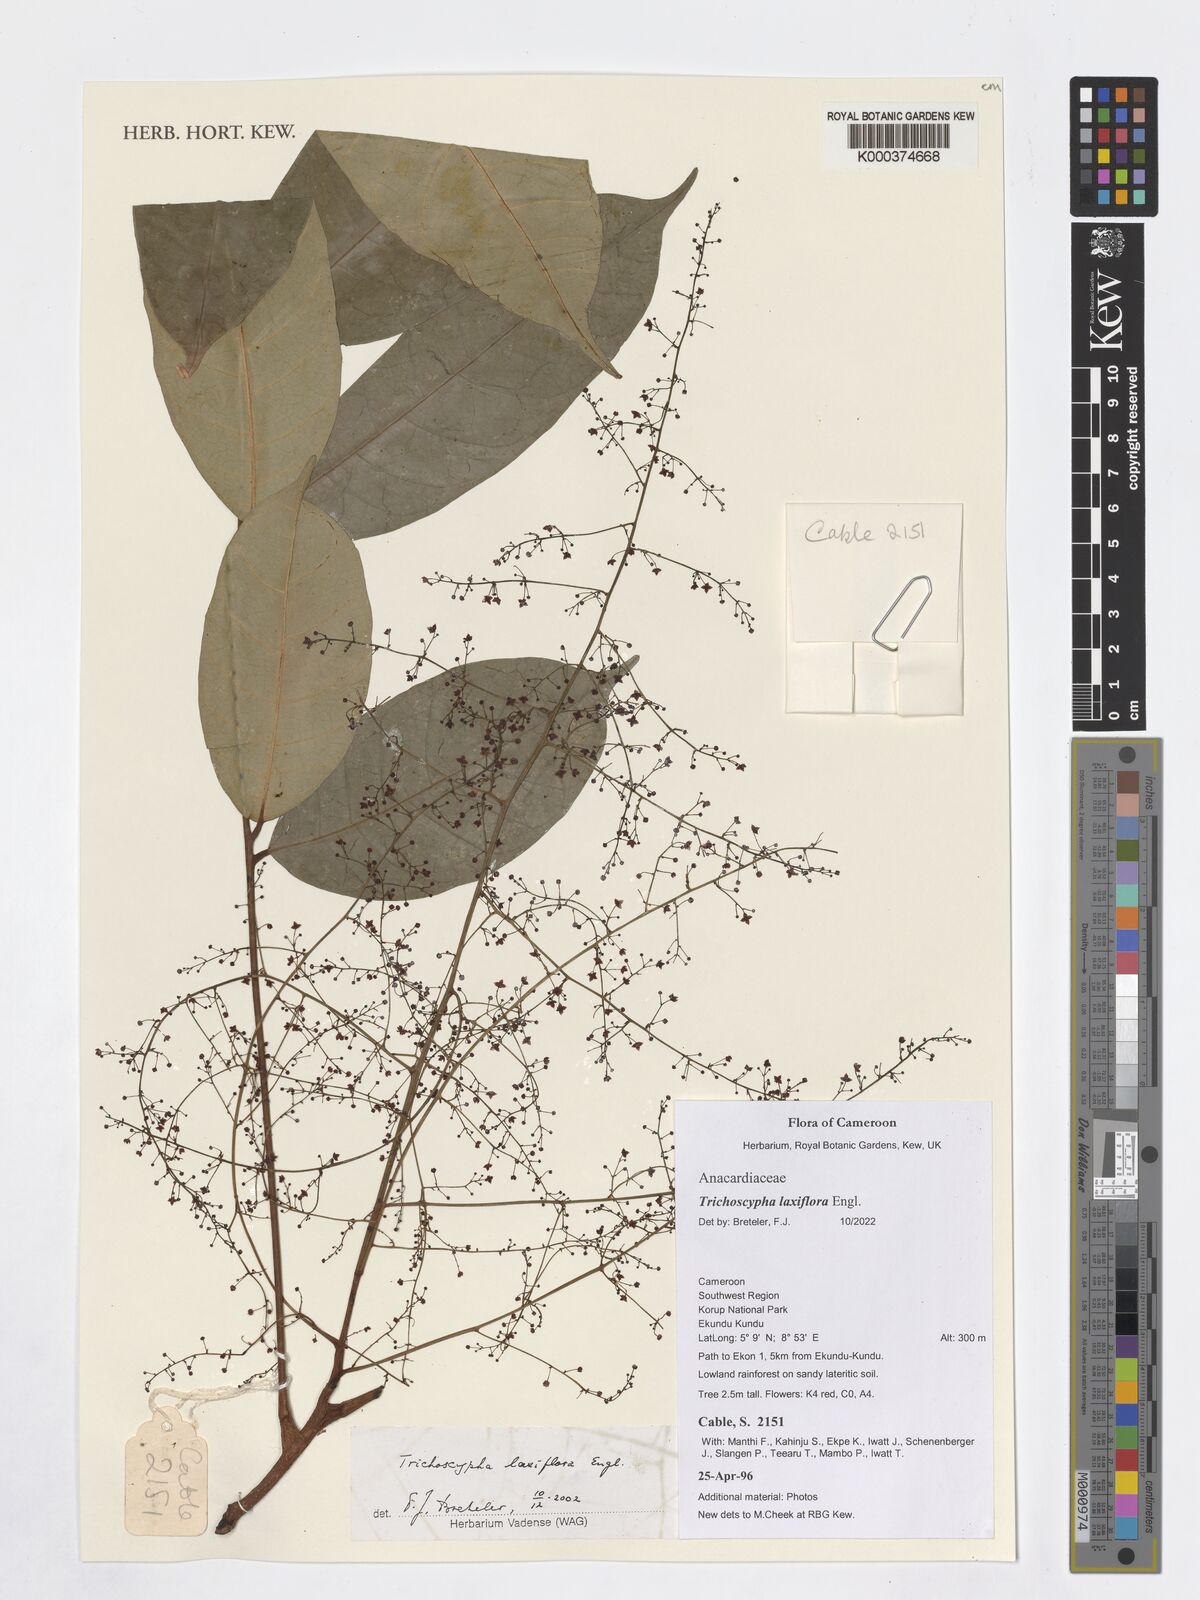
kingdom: Plantae
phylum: Tracheophyta
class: Magnoliopsida
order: Sapindales
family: Anacardiaceae
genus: Trichoscypha
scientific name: Trichoscypha laxiflora
